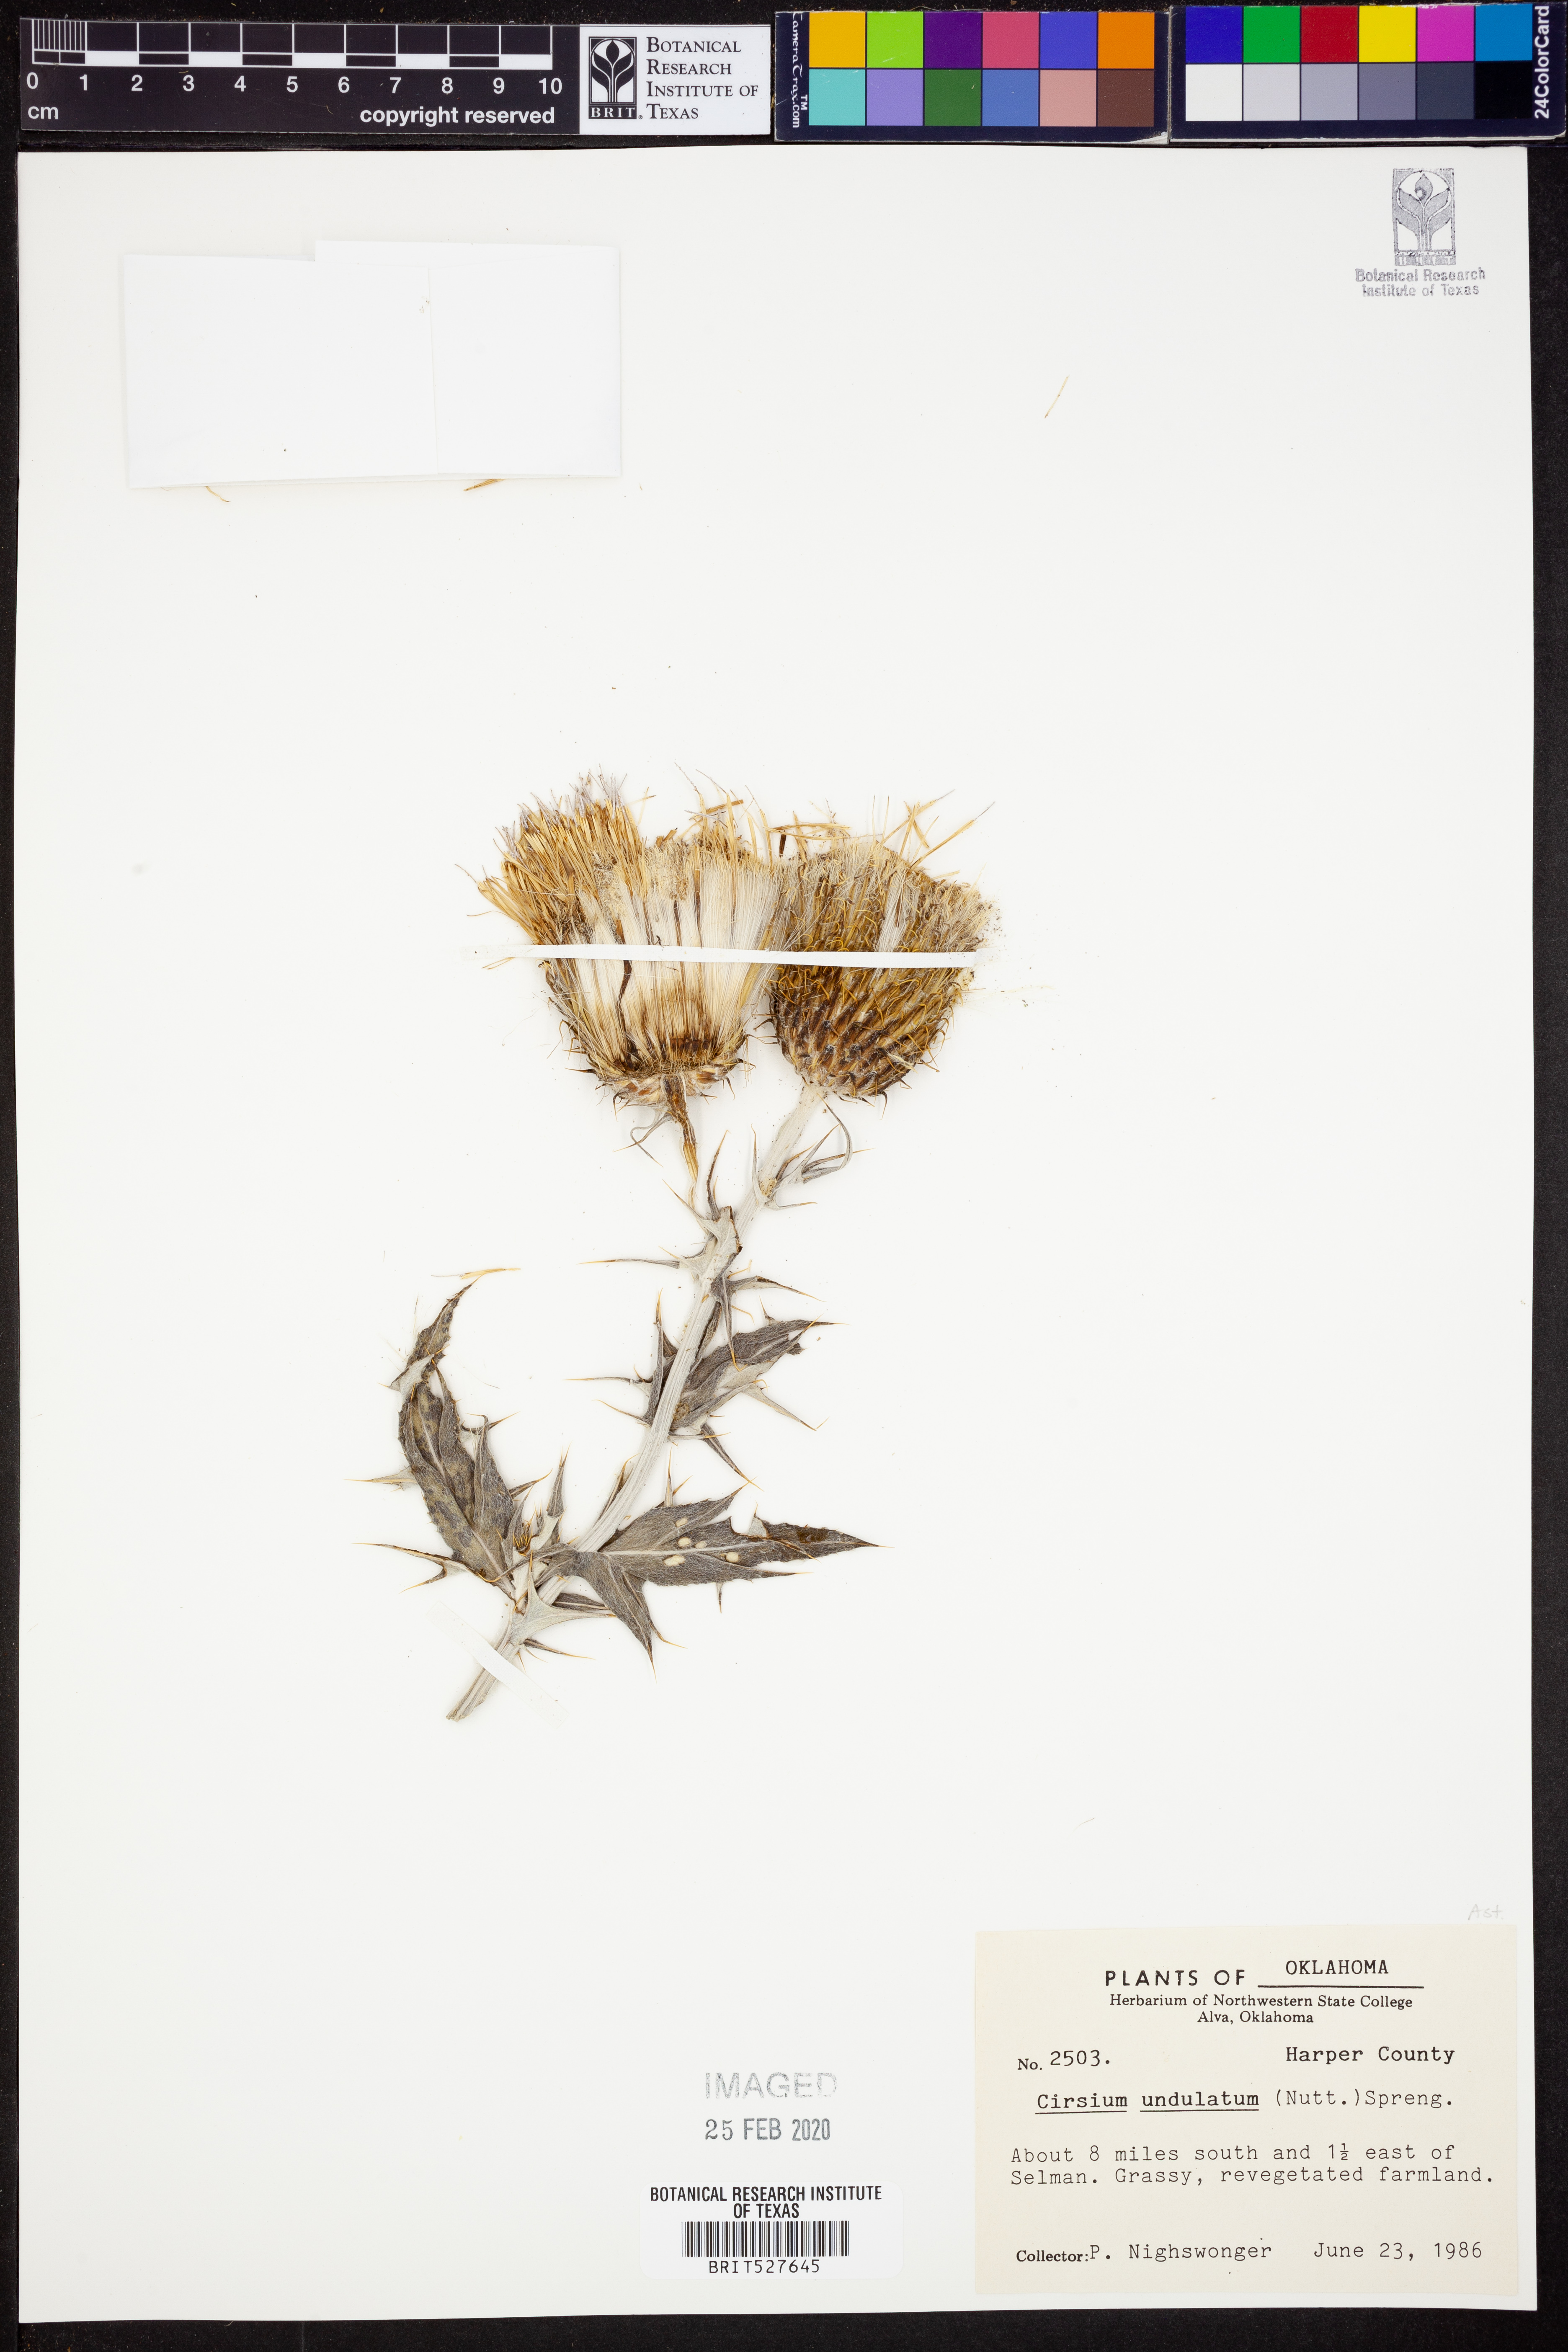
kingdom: Plantae
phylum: Tracheophyta
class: Magnoliopsida
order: Asterales
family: Asteraceae
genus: Cirsium
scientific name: Cirsium undulatum
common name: Pasture thistle
